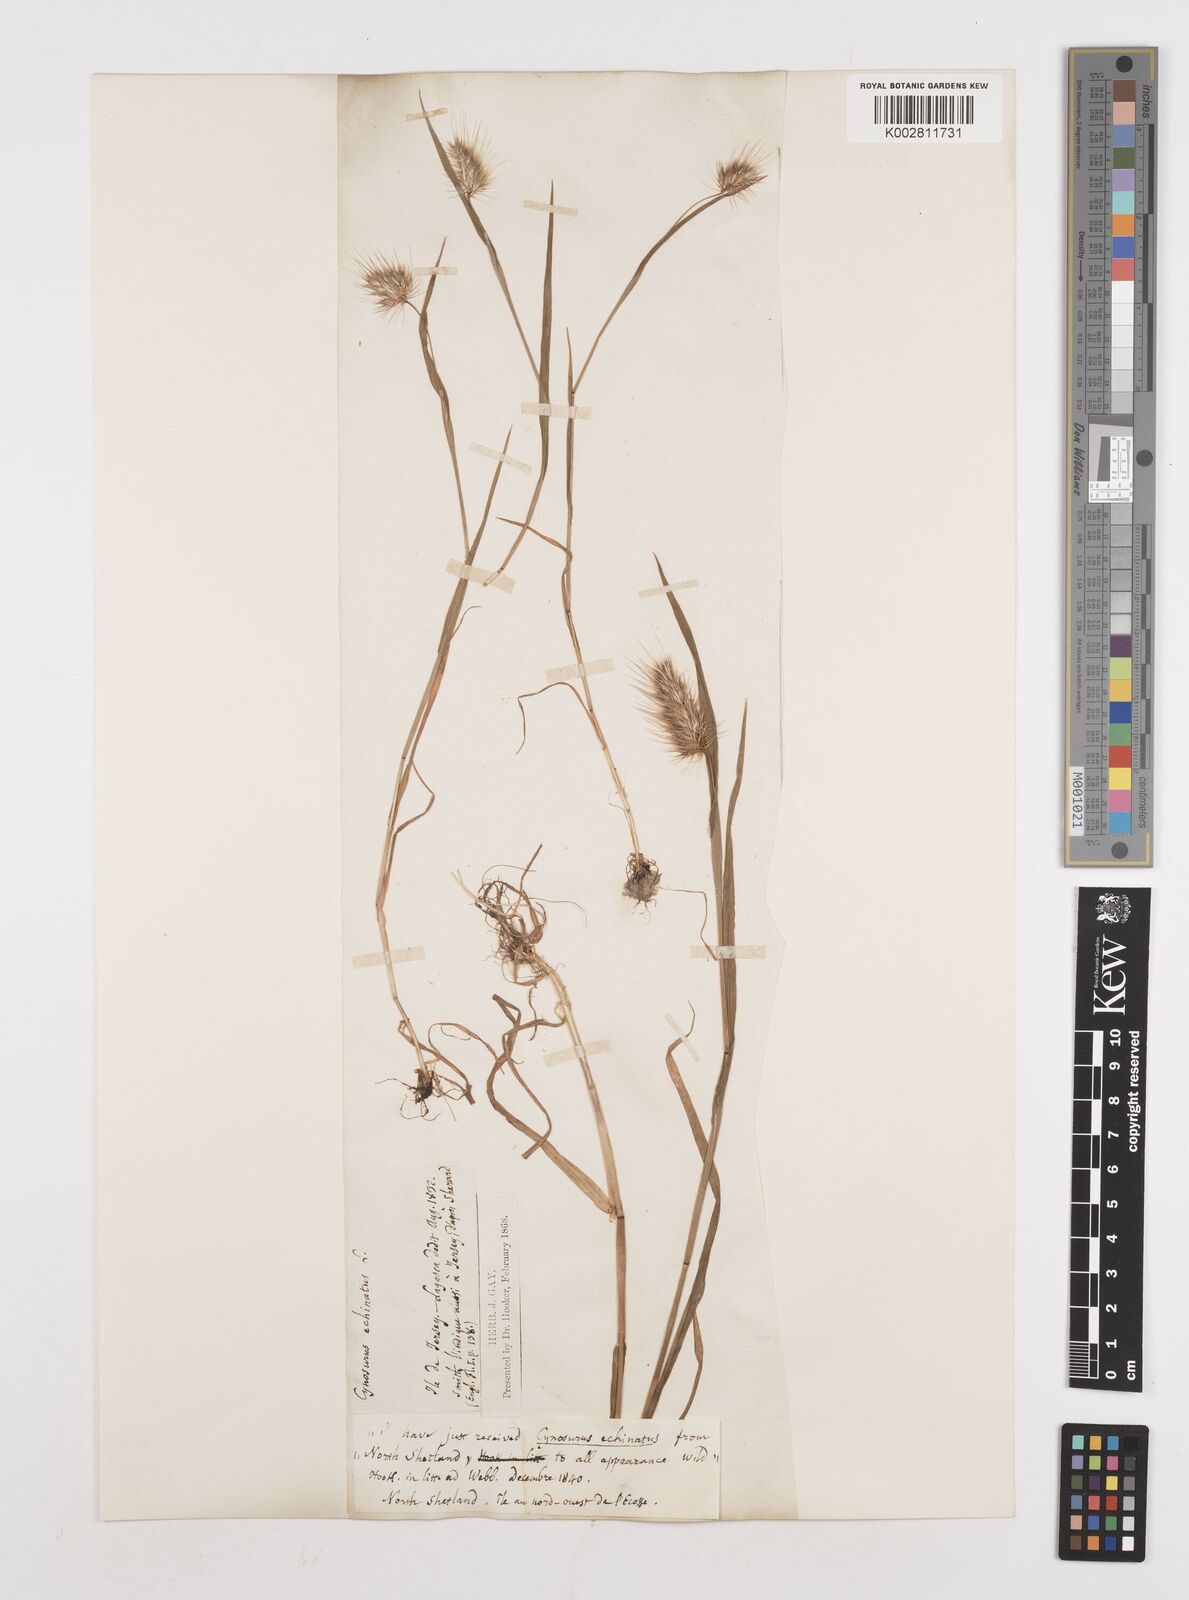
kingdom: Plantae
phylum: Tracheophyta
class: Liliopsida
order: Poales
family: Poaceae
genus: Cynosurus
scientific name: Cynosurus echinatus
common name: Rough dog's-tail
